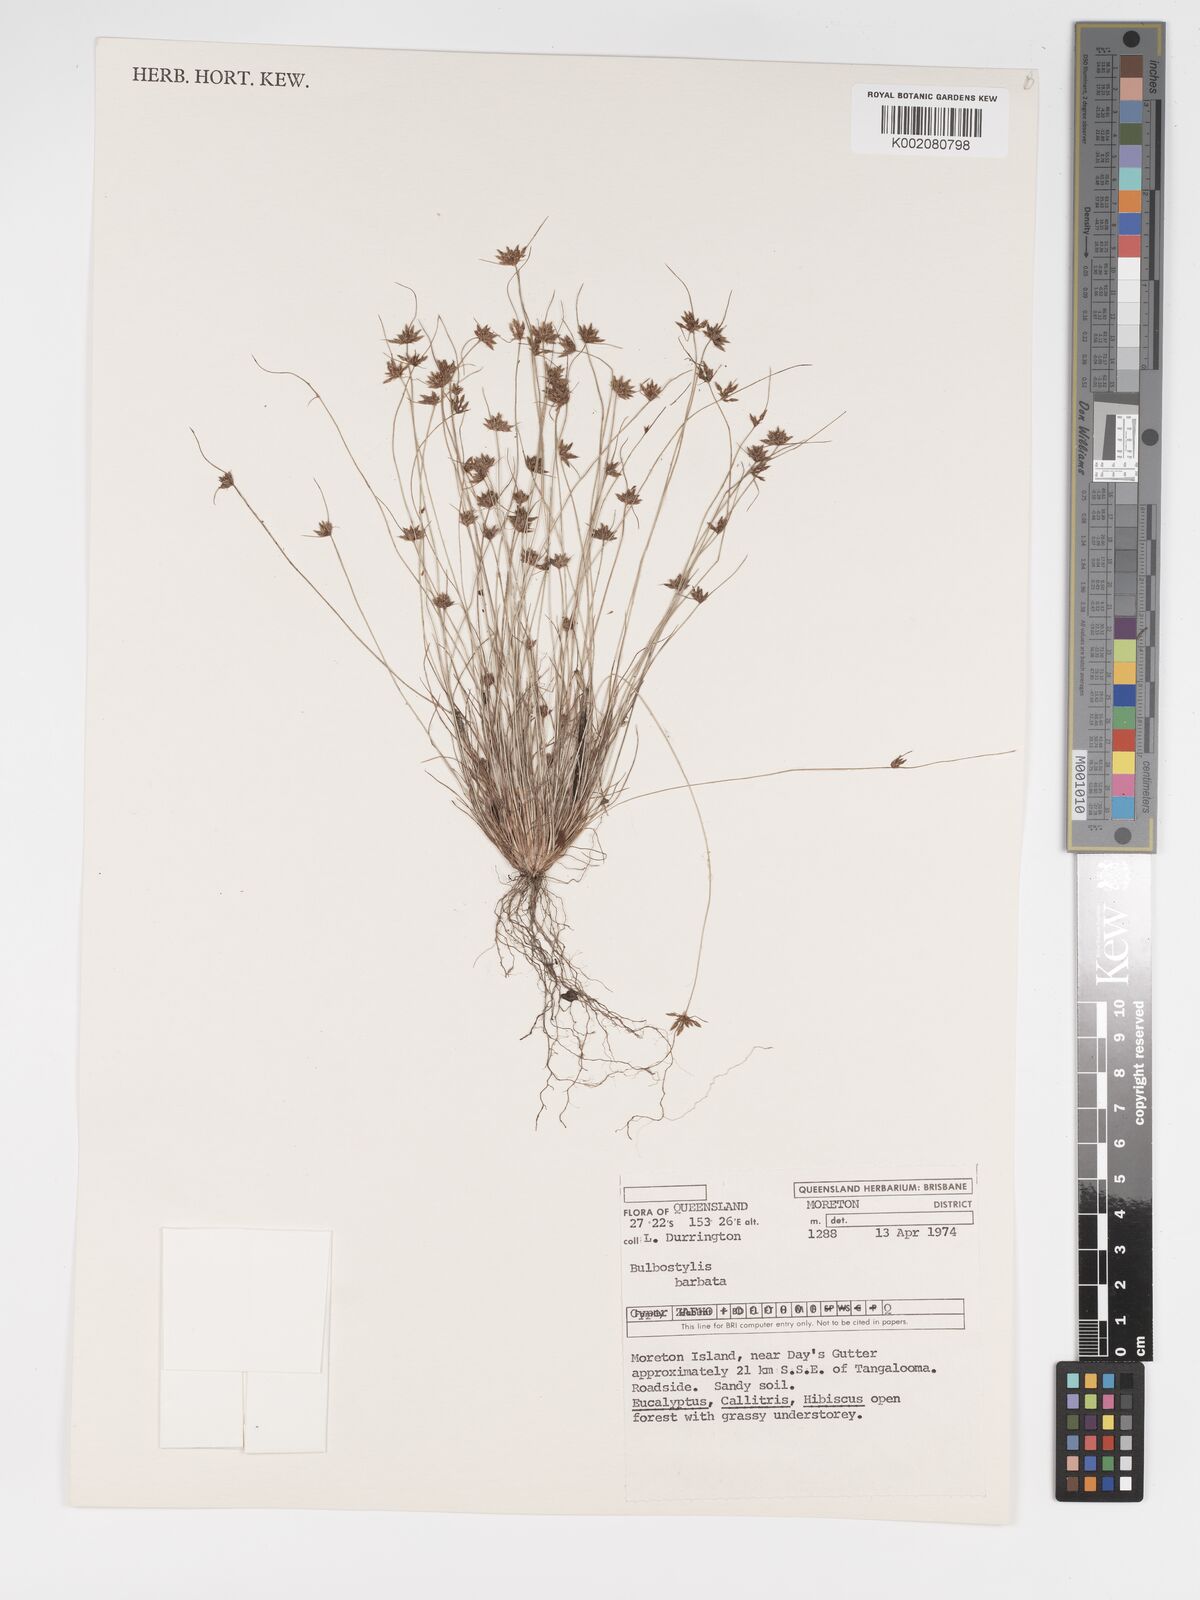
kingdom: Plantae
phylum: Tracheophyta
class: Liliopsida
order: Poales
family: Cyperaceae
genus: Bulbostylis
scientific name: Bulbostylis barbata
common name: Watergrass
